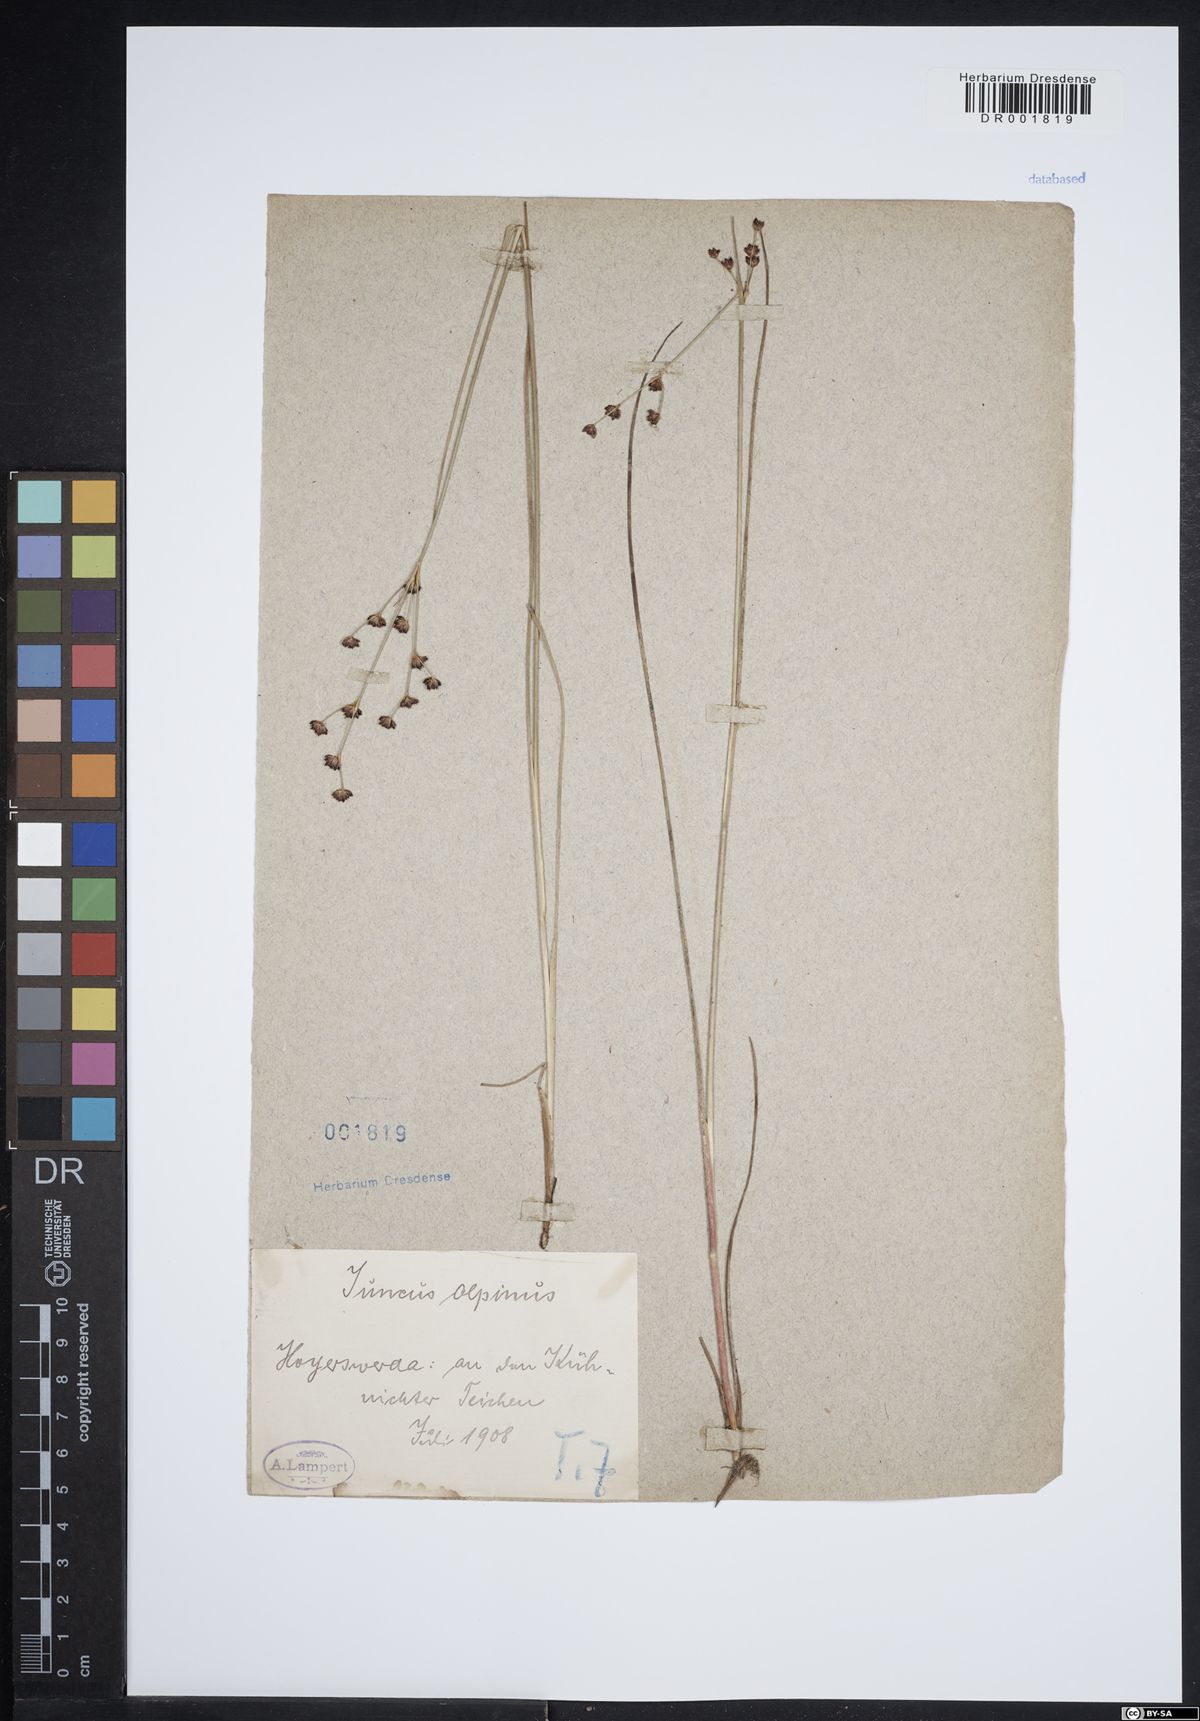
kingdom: Plantae
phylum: Tracheophyta
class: Liliopsida
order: Poales
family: Juncaceae
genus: Juncus
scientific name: Juncus alpinoarticulatus
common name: Alpine rush
